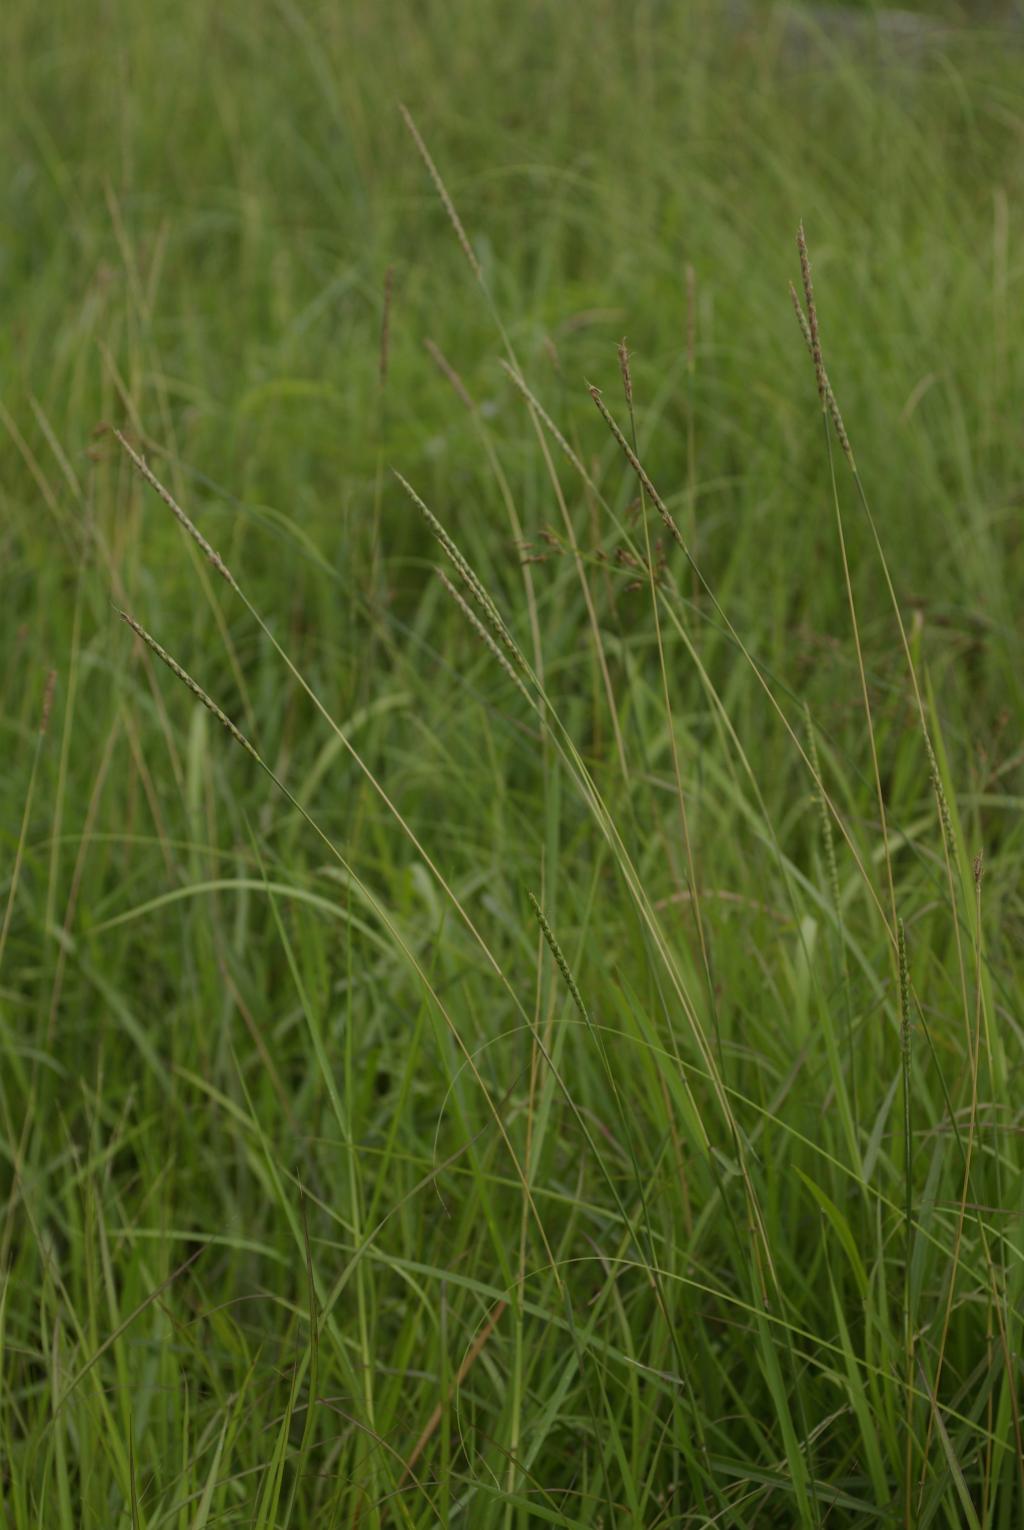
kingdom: Plantae
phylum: Tracheophyta
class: Liliopsida
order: Poales
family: Poaceae
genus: Ischaemum
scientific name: Ischaemum barbatum
